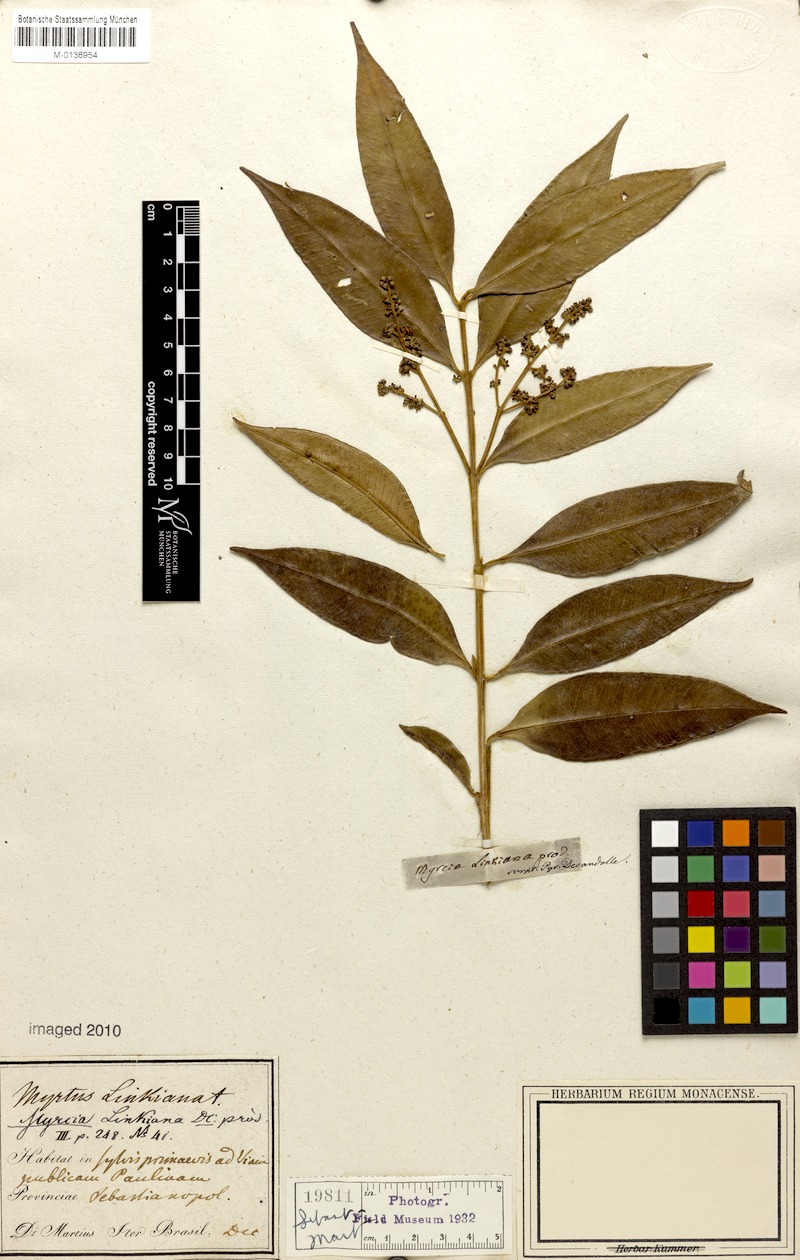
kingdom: Plantae
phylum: Tracheophyta
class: Magnoliopsida
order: Myrtales
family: Myrtaceae
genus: Myrcia
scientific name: Myrcia cordiifolia
